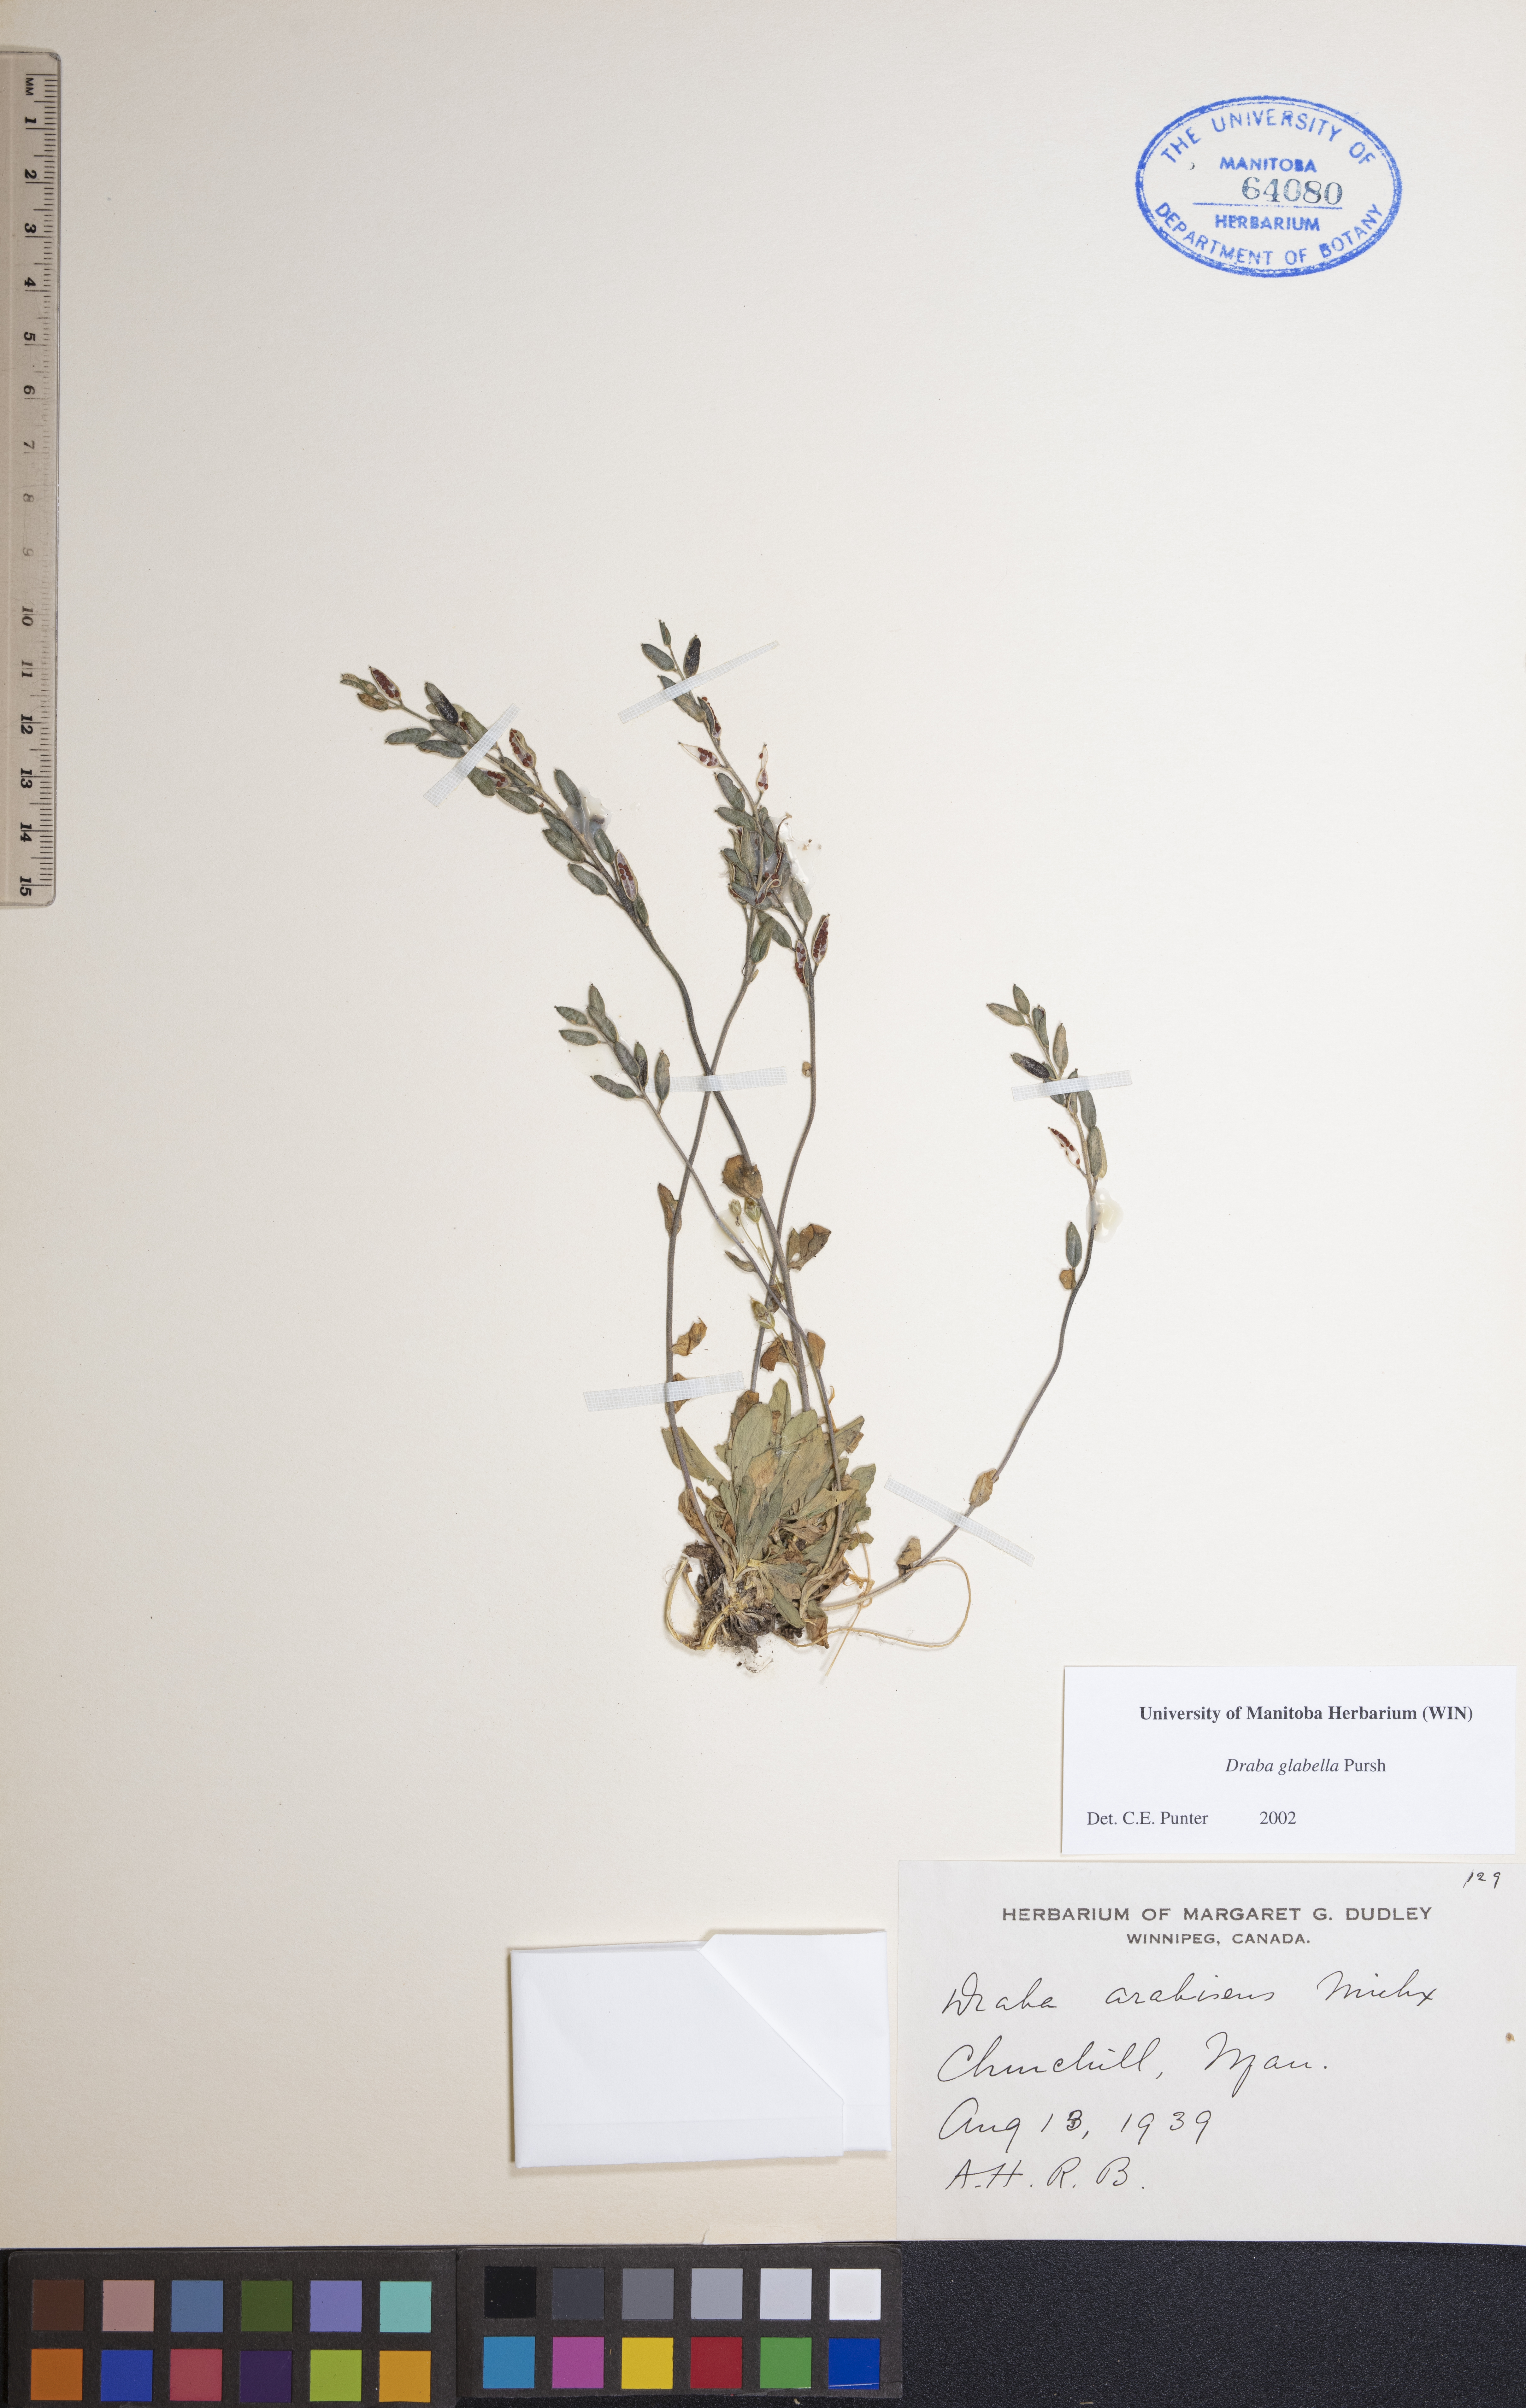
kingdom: Plantae
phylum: Tracheophyta
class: Magnoliopsida
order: Brassicales
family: Brassicaceae
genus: Draba
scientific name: Draba glabella
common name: Glaucous draba
